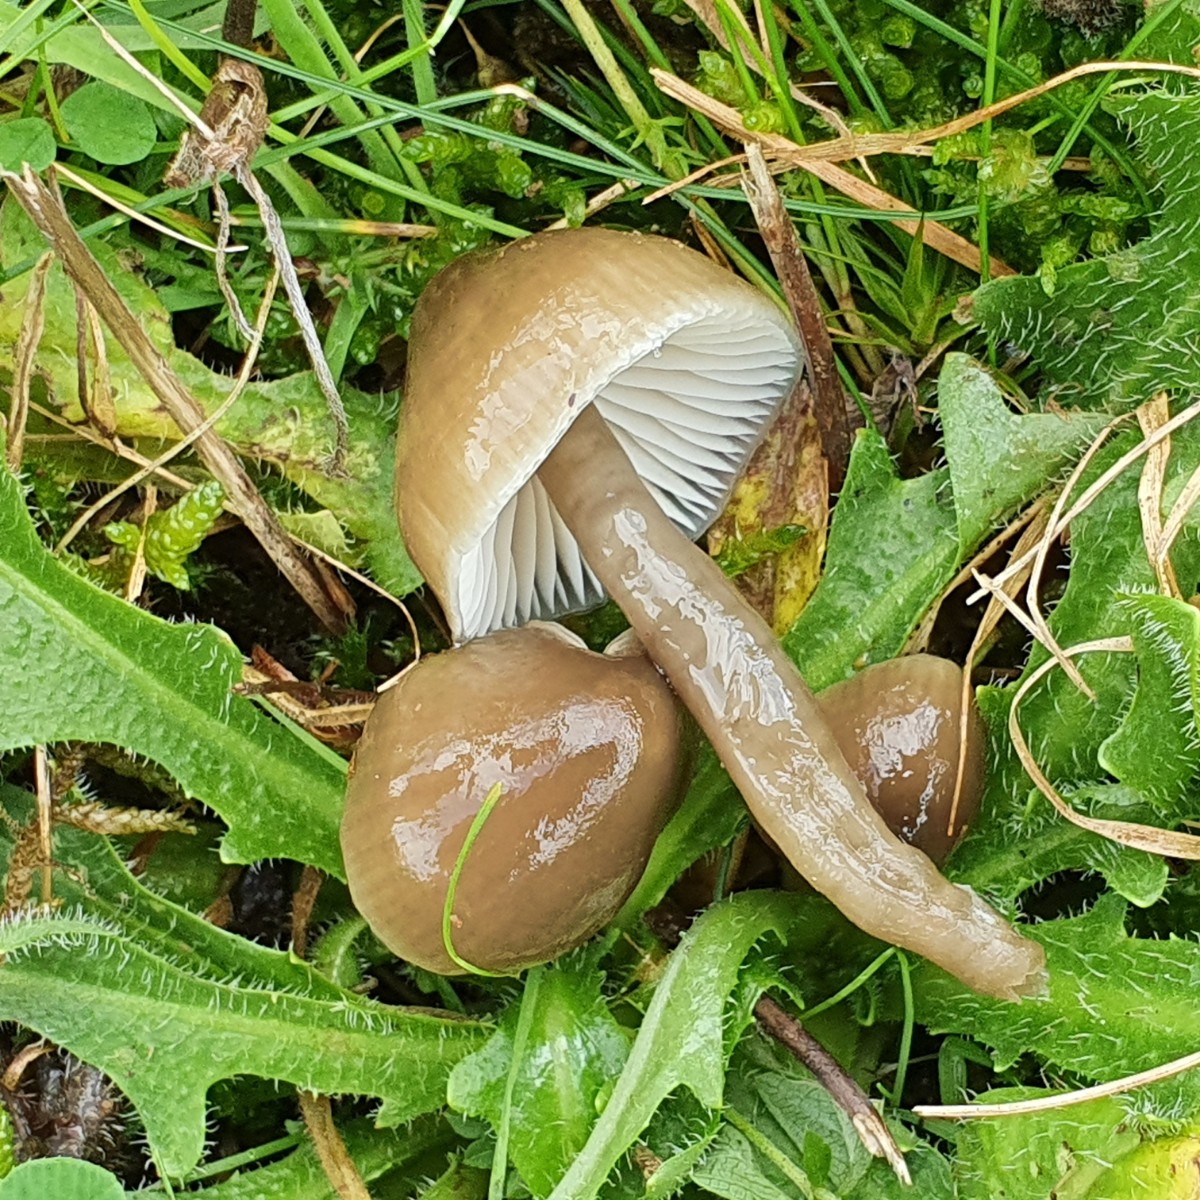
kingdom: Fungi
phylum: Basidiomycota
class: Agaricomycetes
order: Agaricales
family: Hygrophoraceae
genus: Gliophorus
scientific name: Gliophorus irrigatus
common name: slimet vokshat
